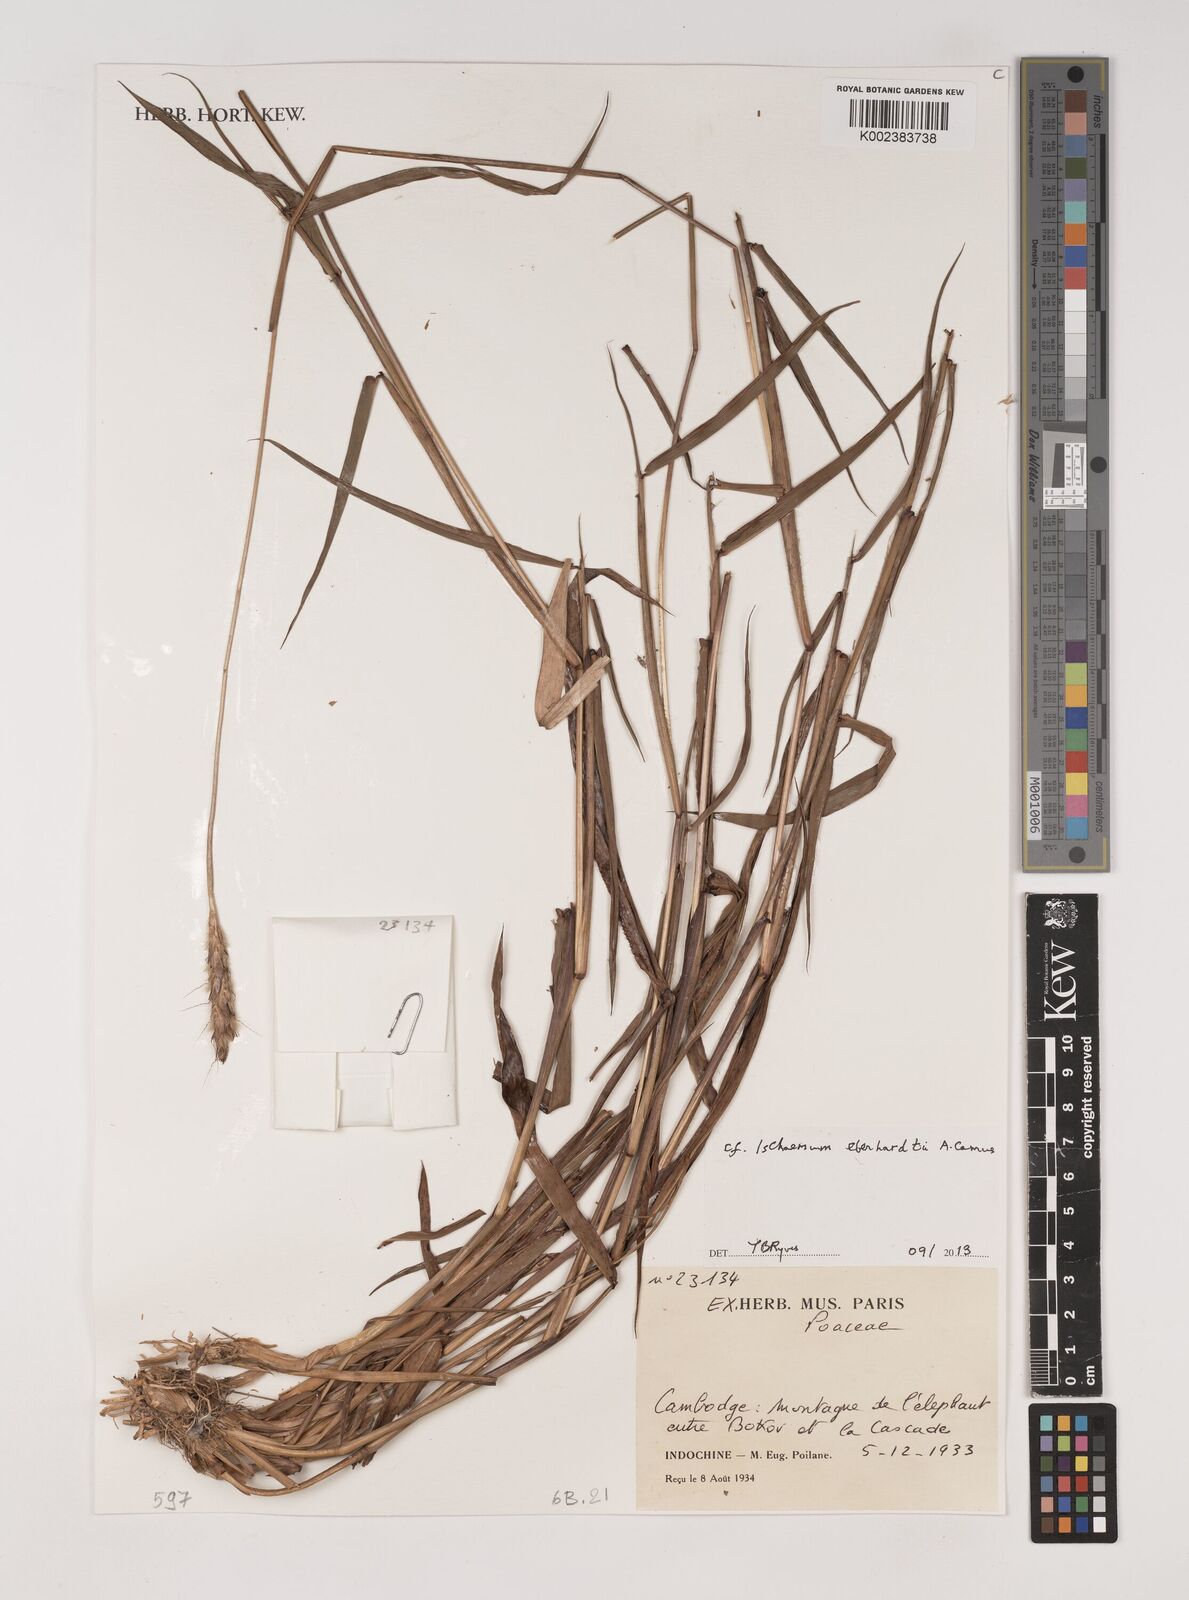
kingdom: Plantae
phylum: Tracheophyta
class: Liliopsida
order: Poales
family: Poaceae
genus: Ischaemum
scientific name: Ischaemum eberhardtii
